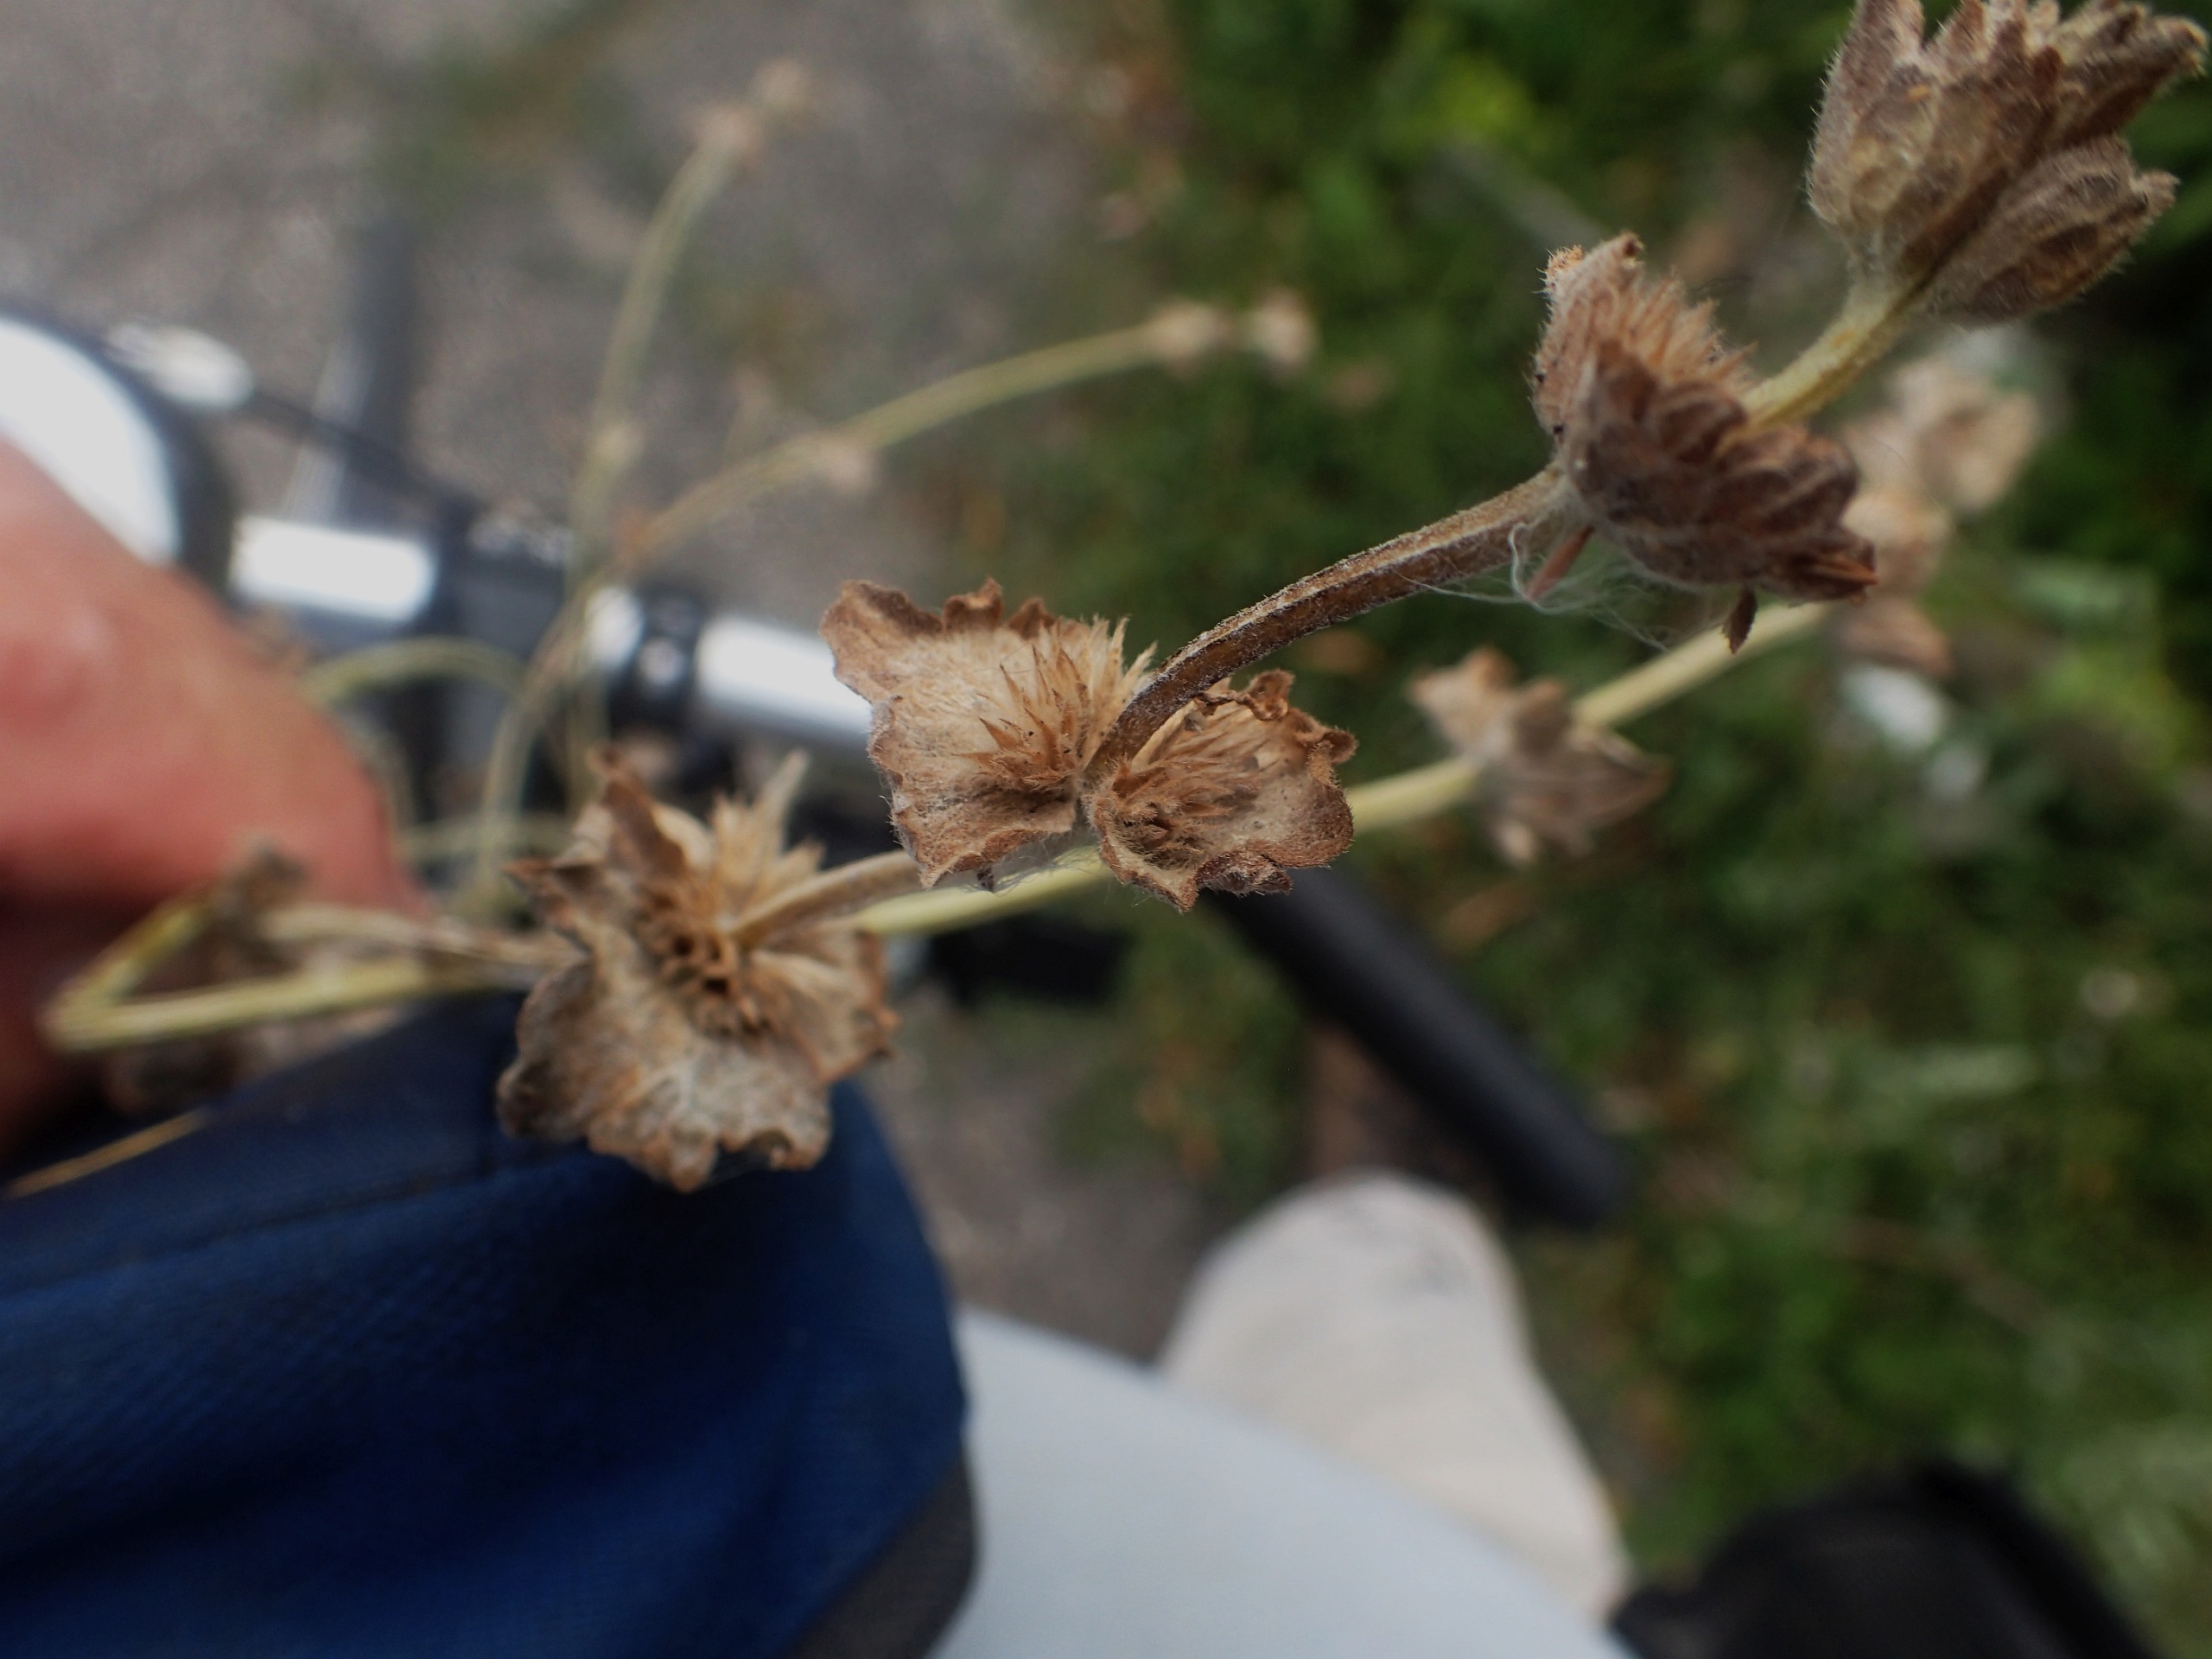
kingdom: Plantae
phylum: Tracheophyta
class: Magnoliopsida
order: Lamiales
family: Lamiaceae
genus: Lamium
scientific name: Lamium amplexicaule
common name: Liden tvetand
